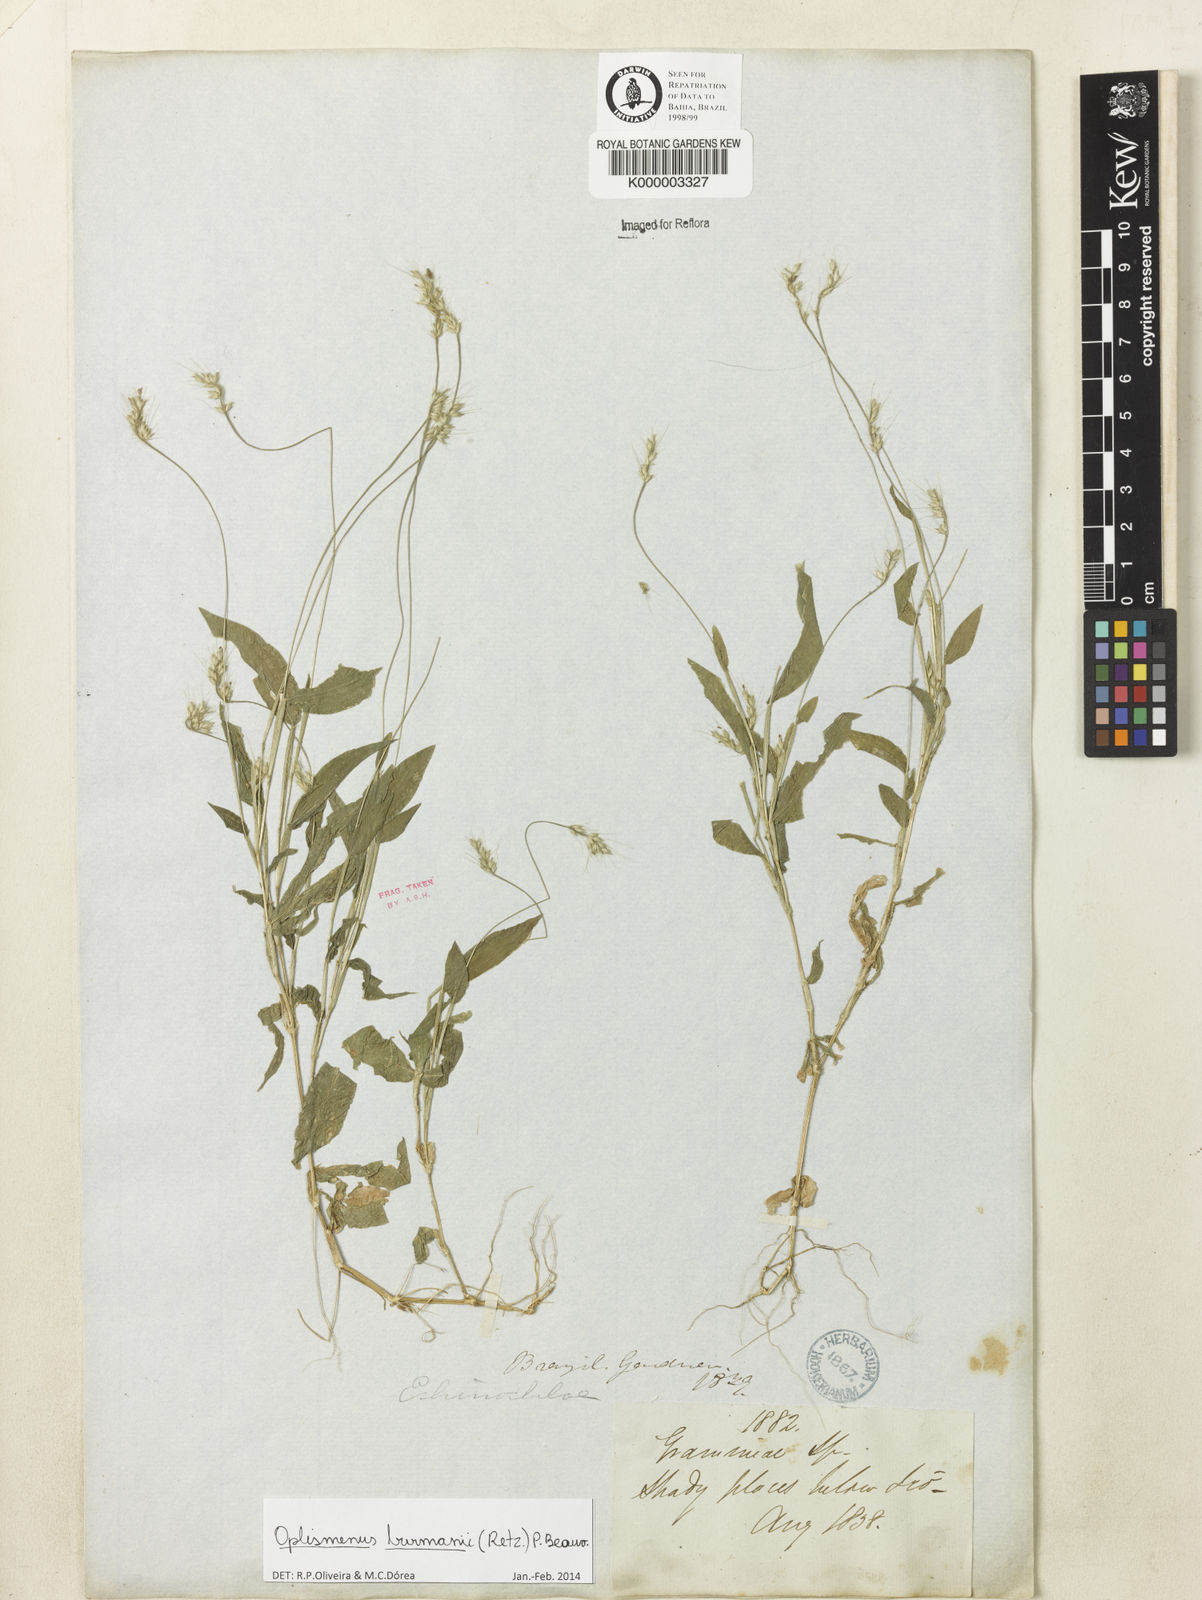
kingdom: Plantae
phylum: Tracheophyta
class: Liliopsida
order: Poales
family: Poaceae
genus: Oplismenus
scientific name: Oplismenus burmanni
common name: Burmann's basketgrass
